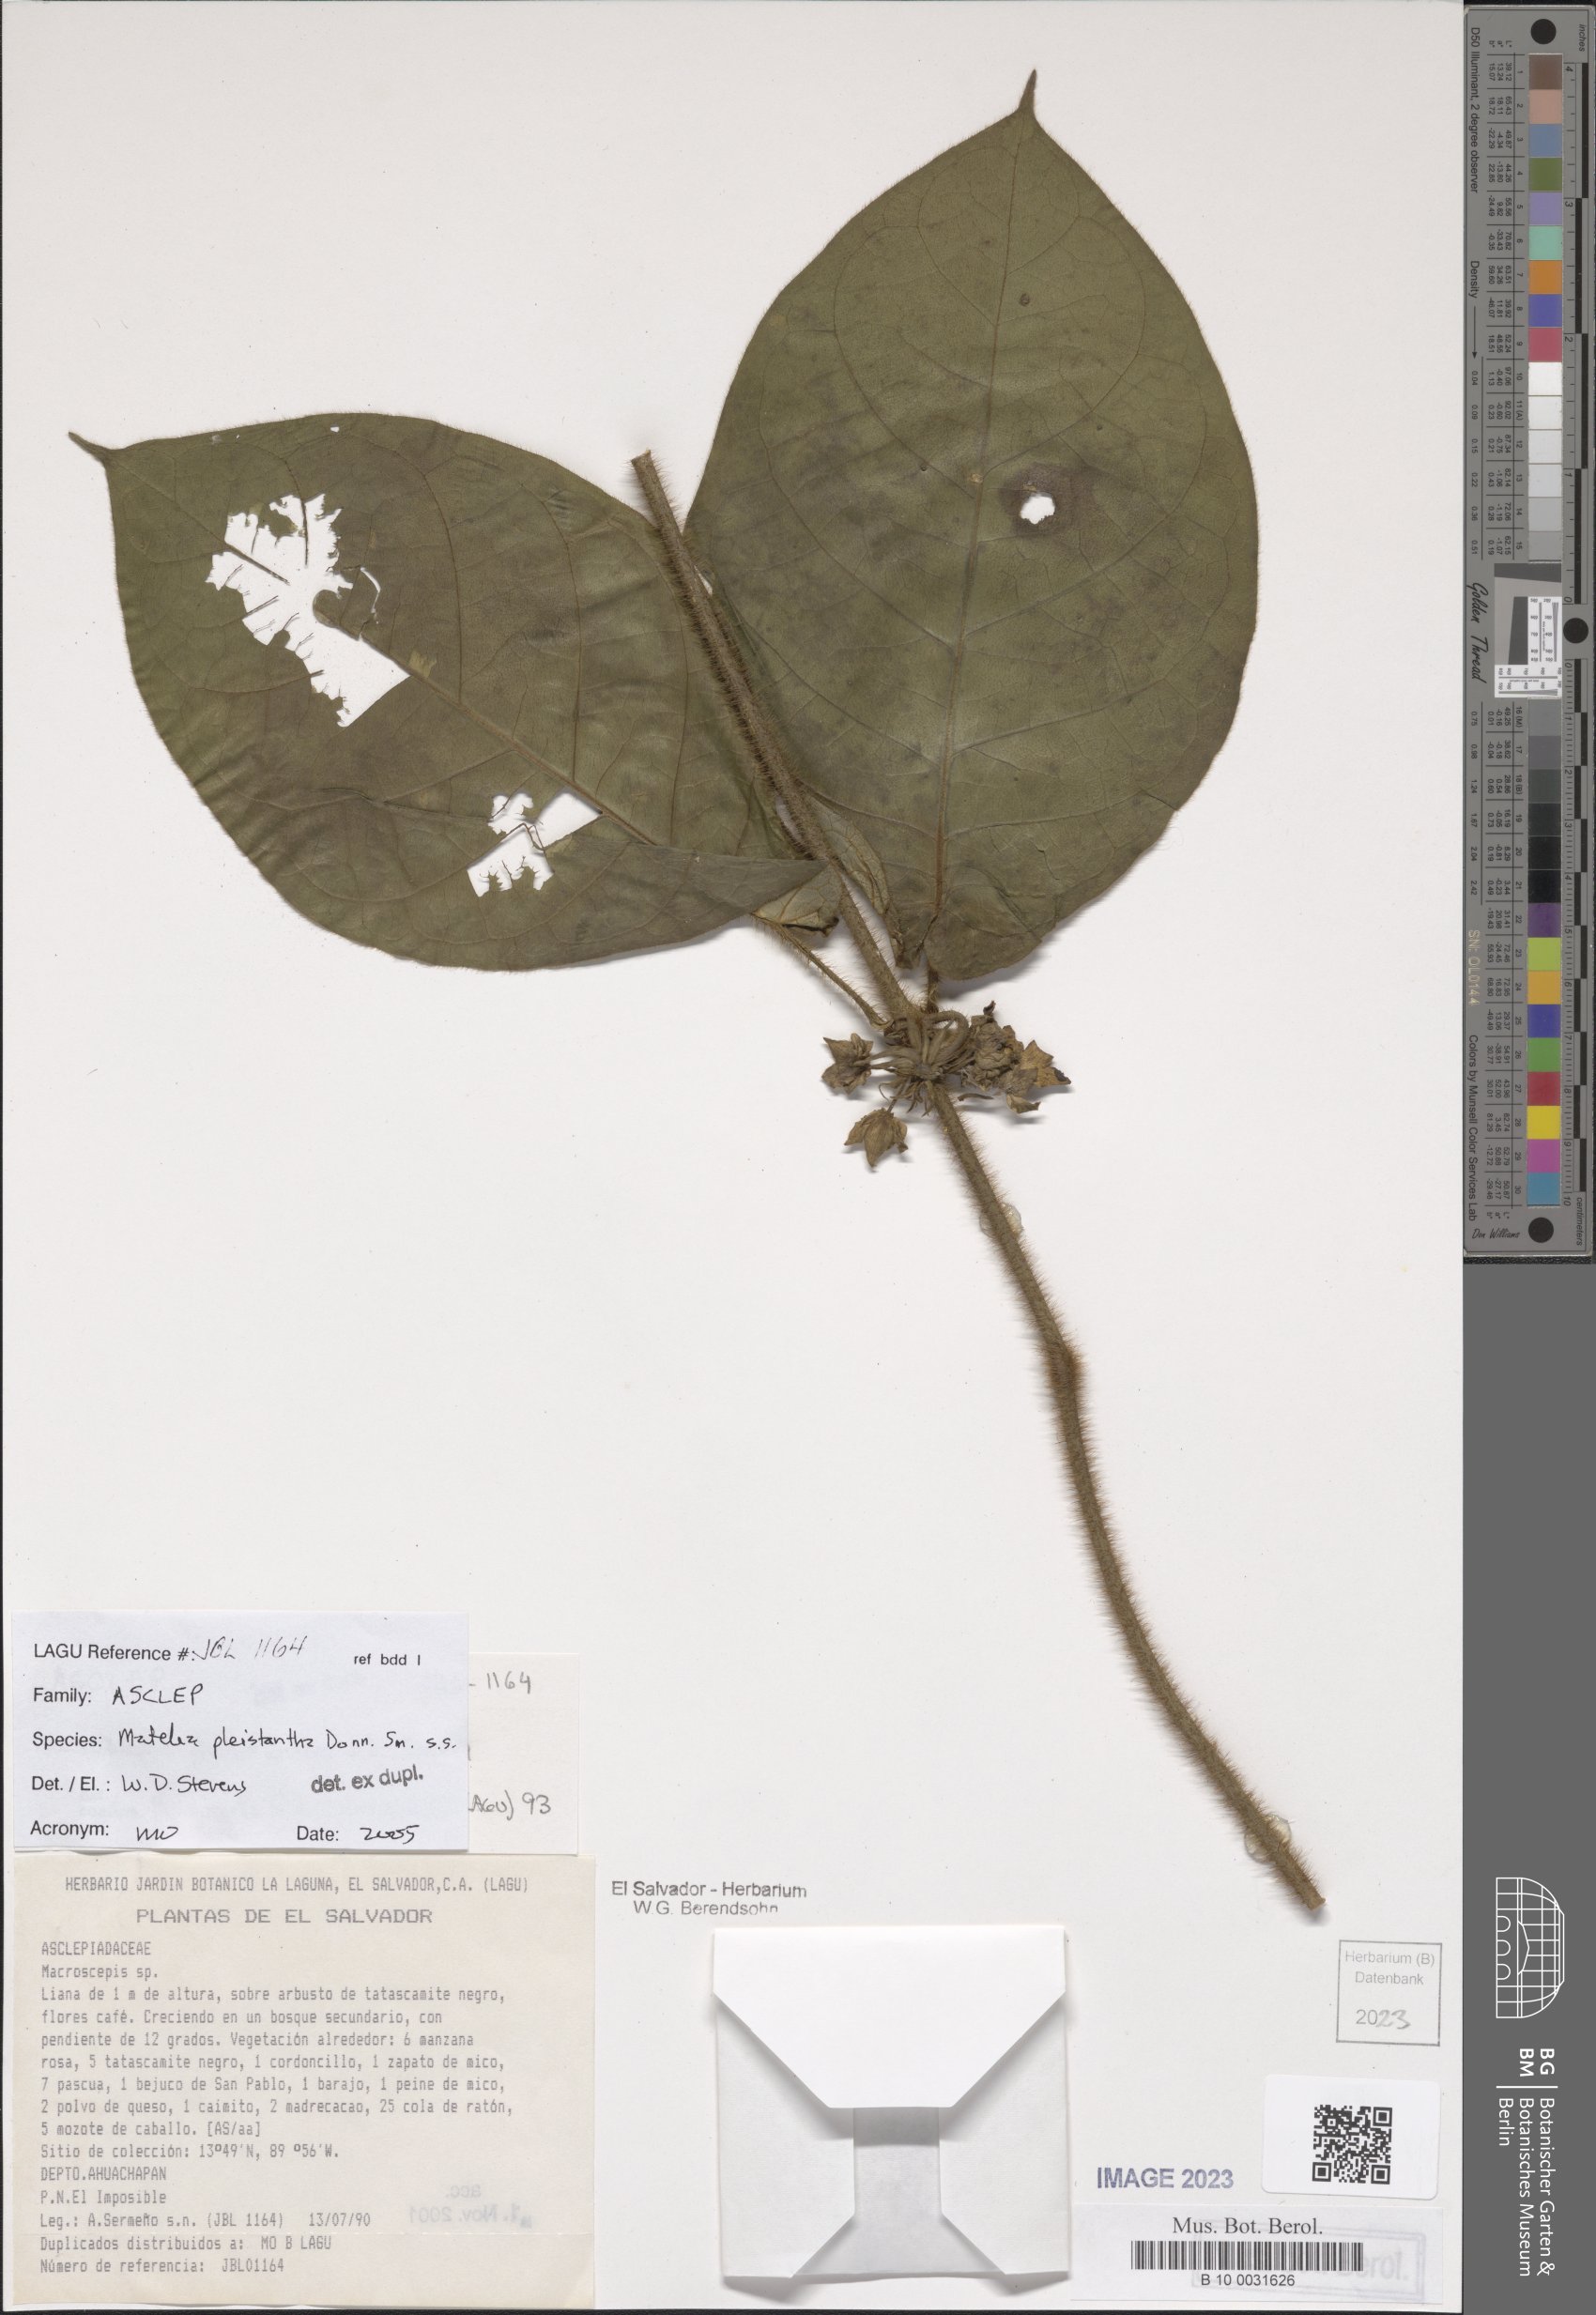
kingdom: Plantae
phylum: Tracheophyta
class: Magnoliopsida
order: Gentianales
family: Apocynaceae
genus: Macroscepis
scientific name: Macroscepis pleistantha
